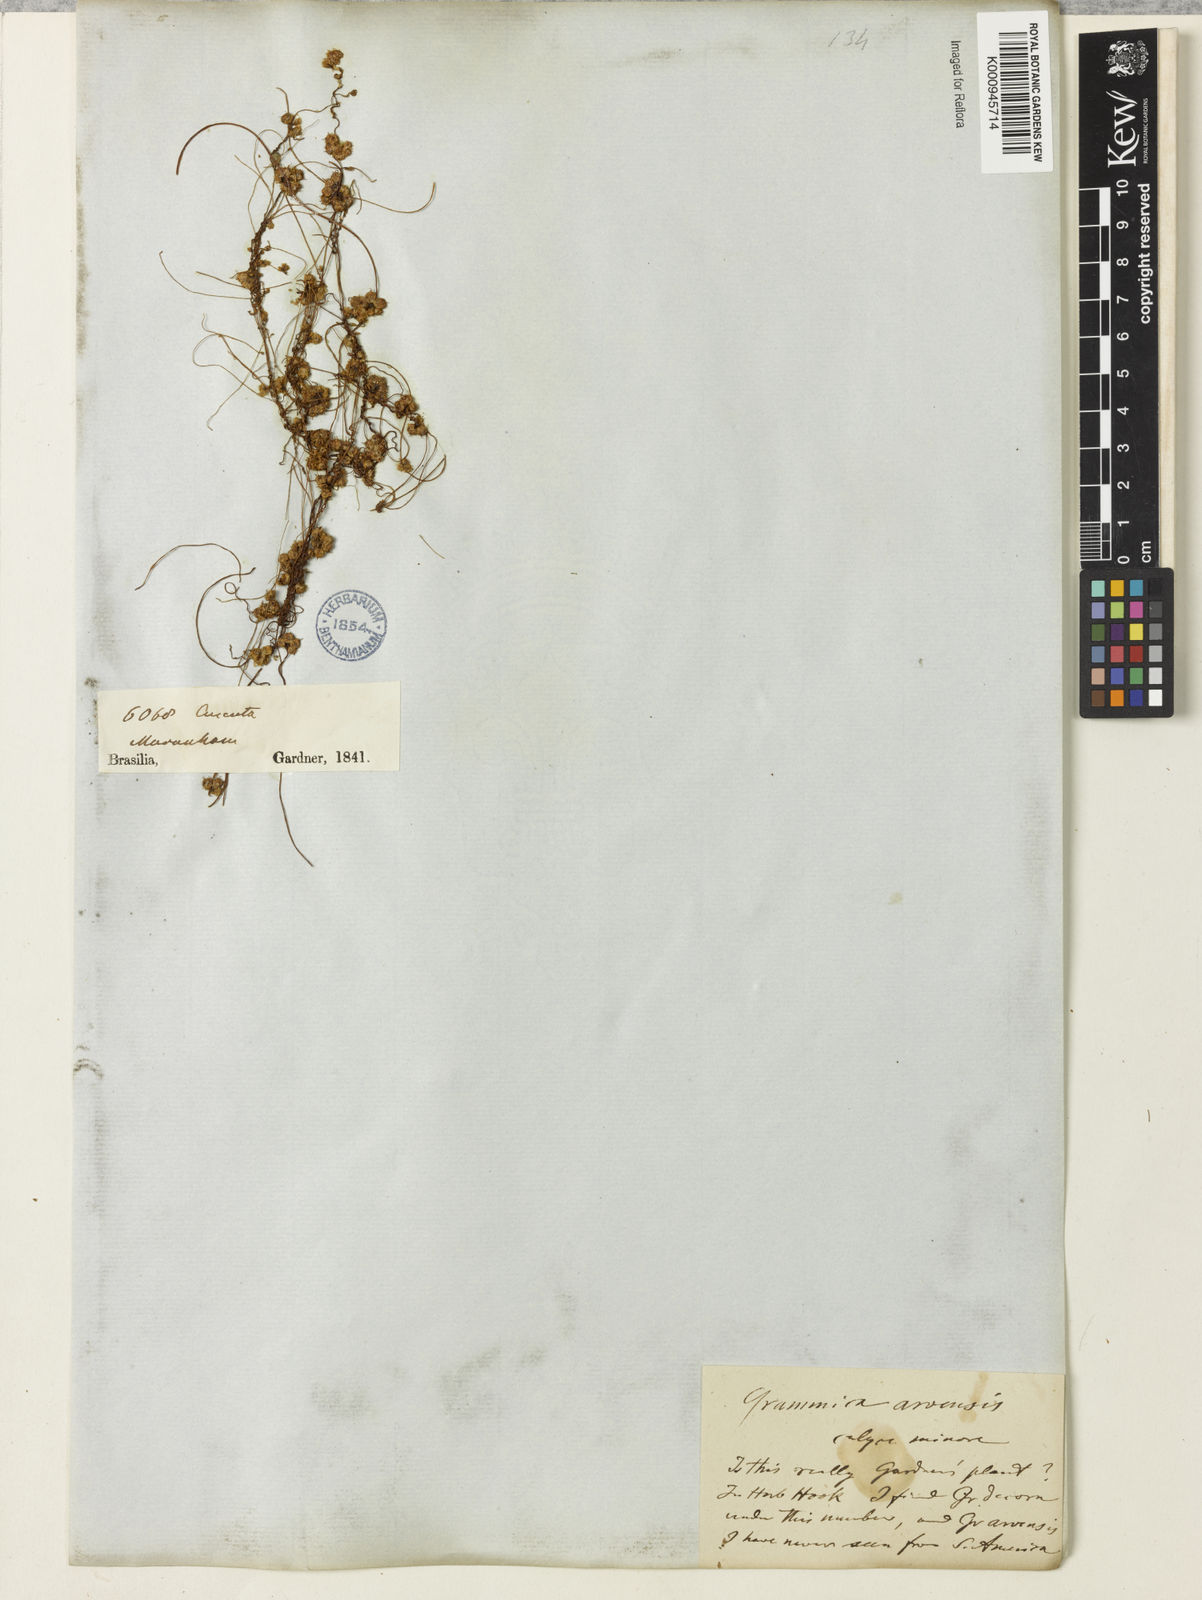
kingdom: Plantae
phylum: Tracheophyta
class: Magnoliopsida
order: Solanales
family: Convolvulaceae
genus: Cuscuta
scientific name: Cuscuta indecora
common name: Large-seed dodder
